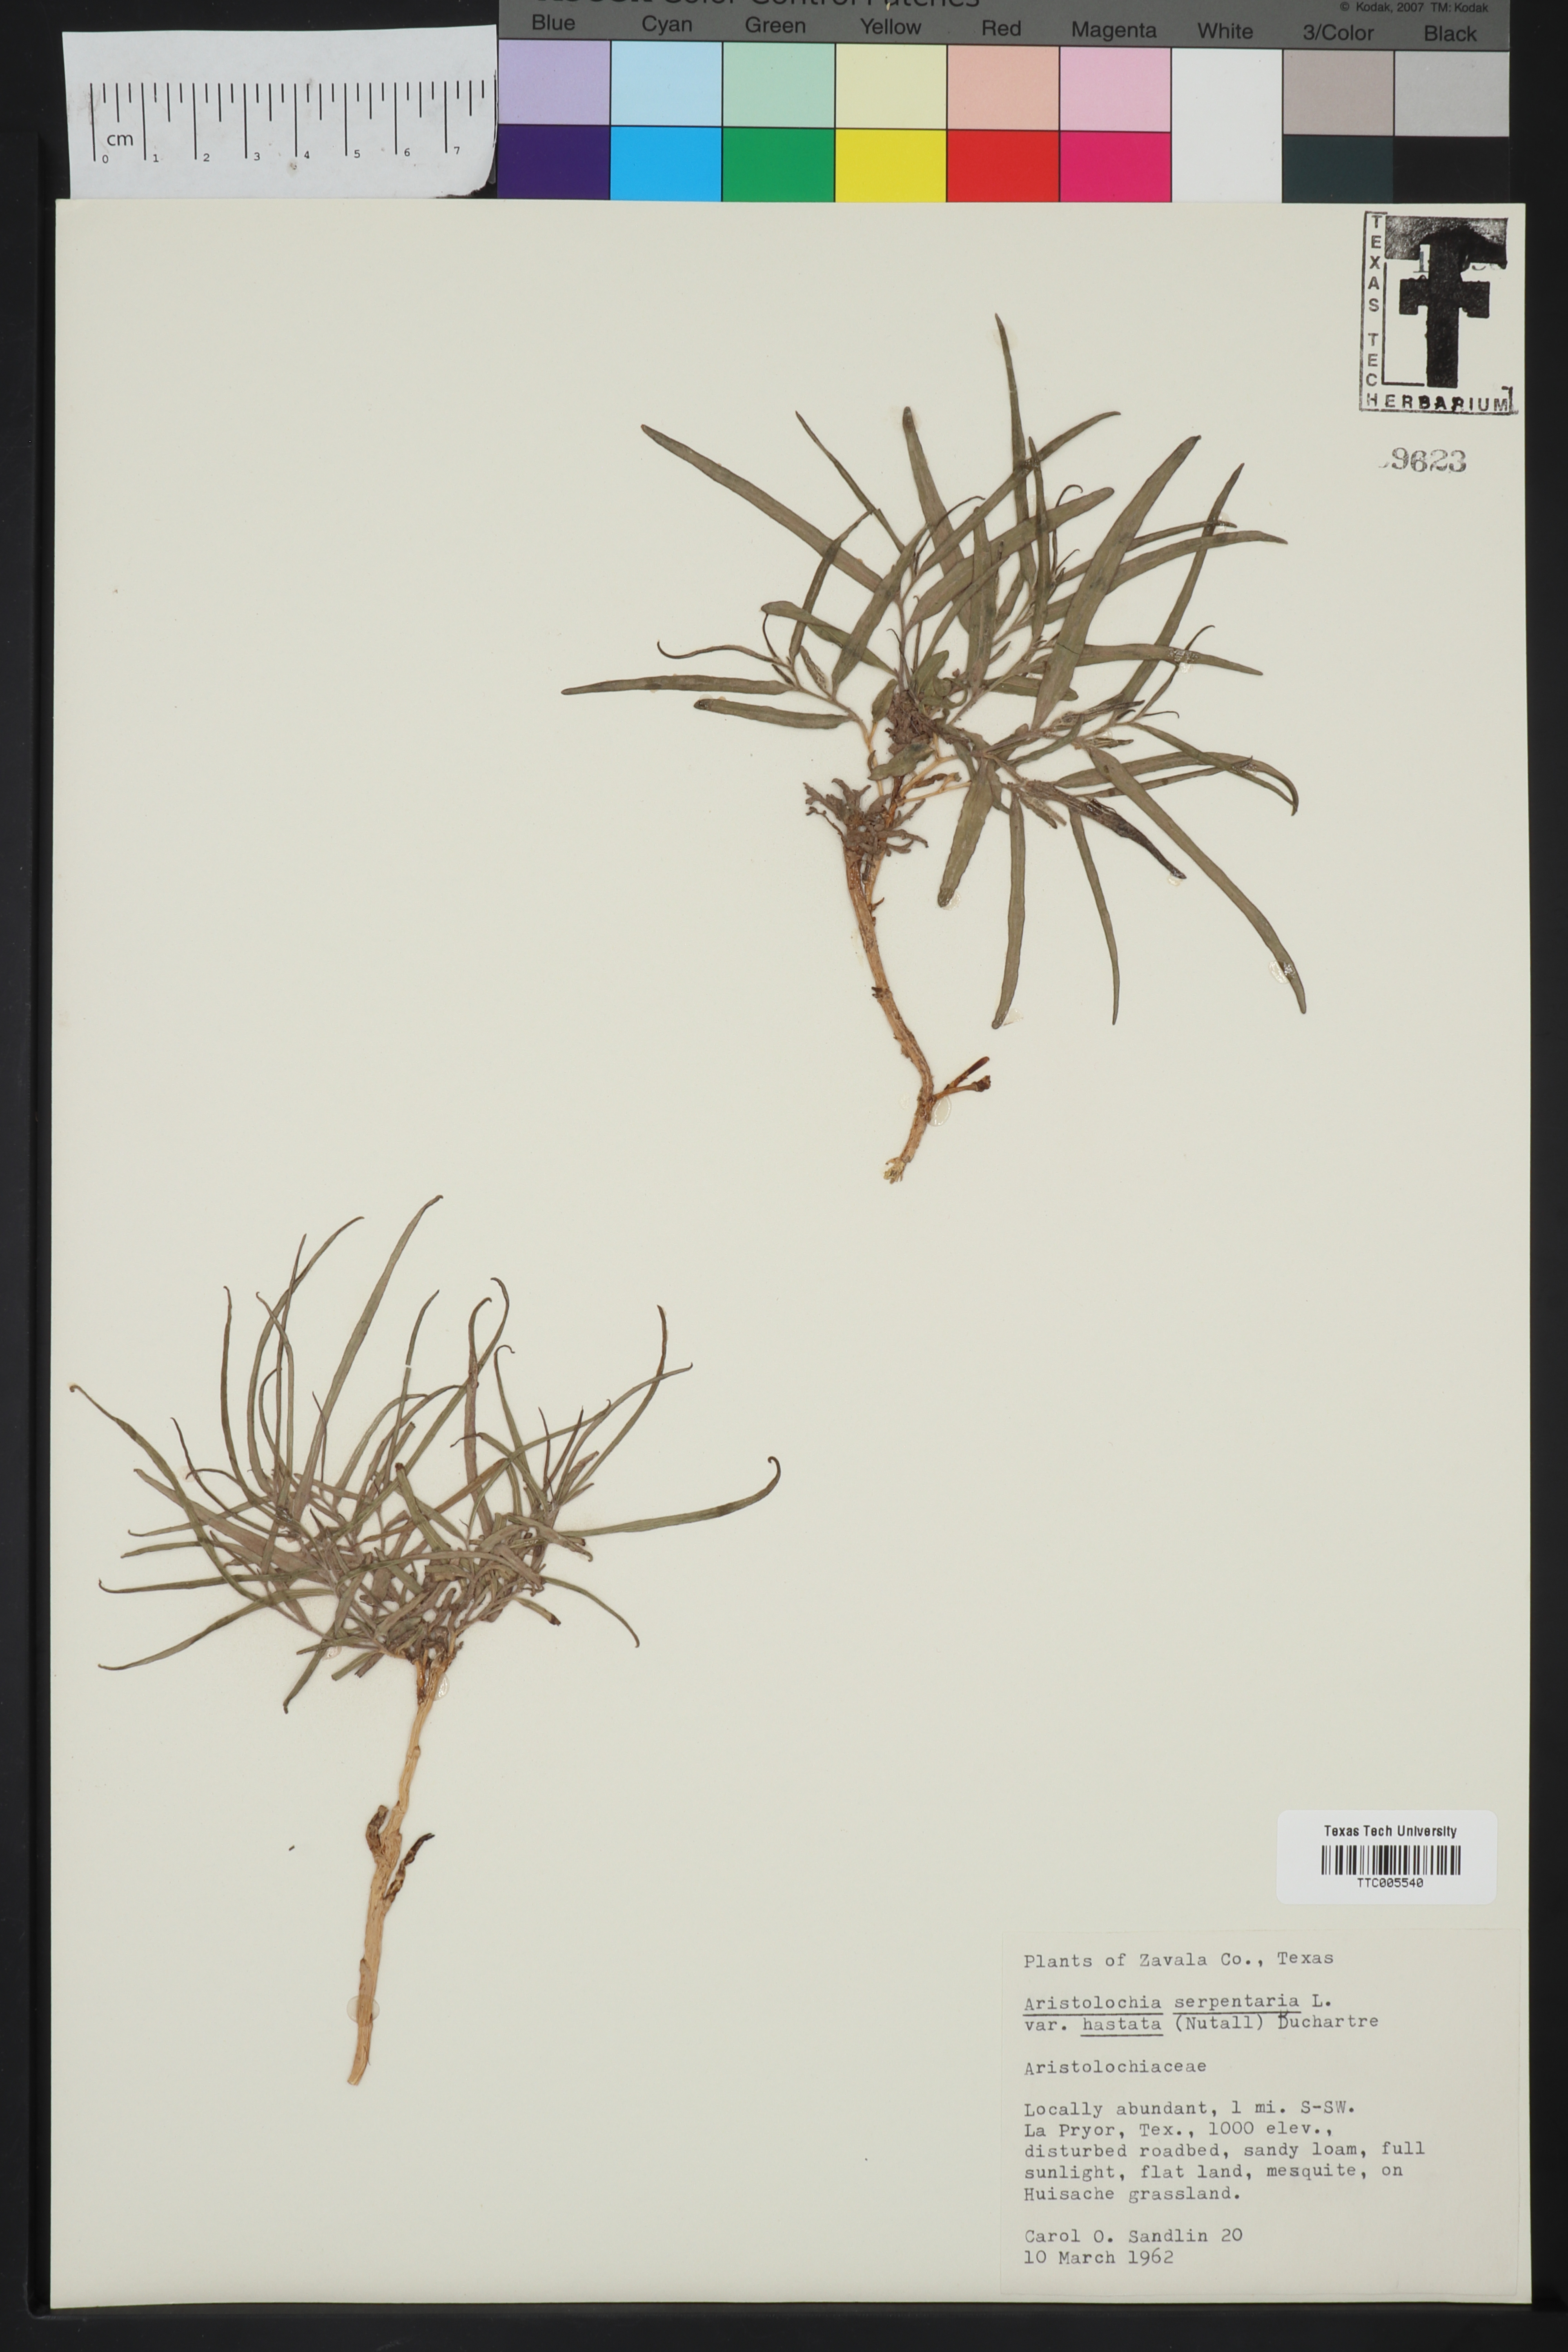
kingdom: Plantae
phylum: Tracheophyta
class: Magnoliopsida
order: Piperales
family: Aristolochiaceae
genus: Endodeca
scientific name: Endodeca serpentaria
